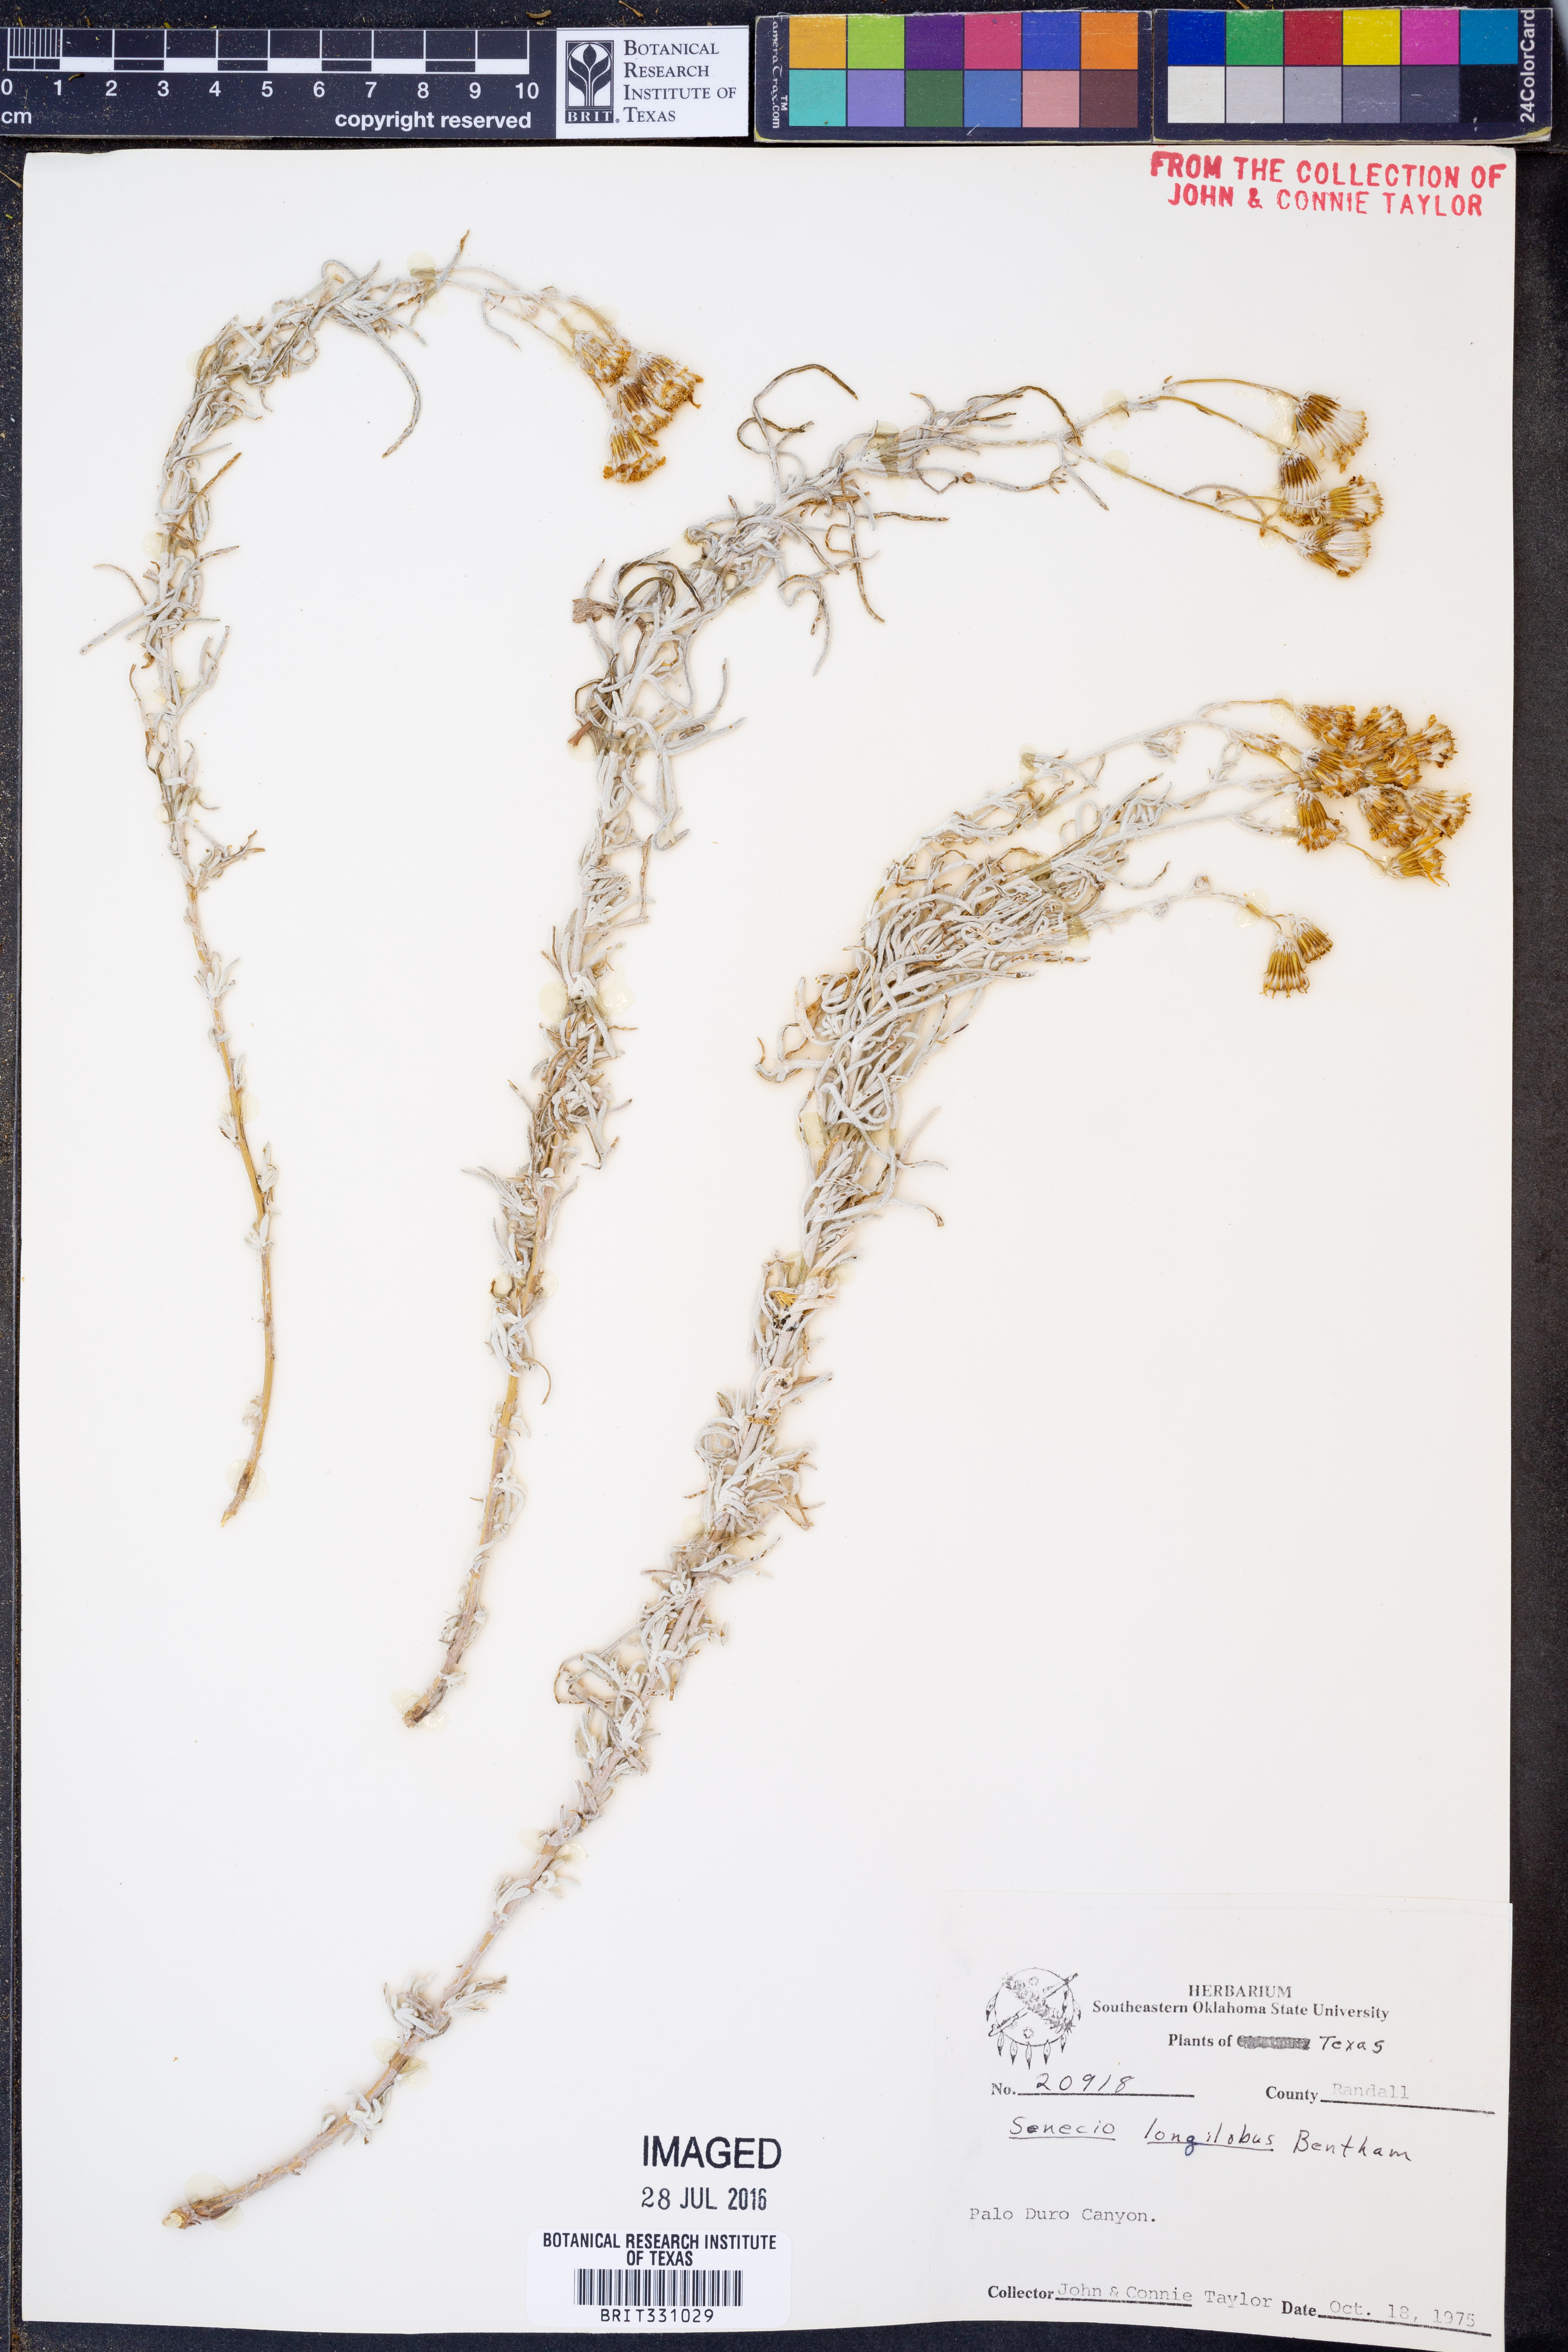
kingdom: Plantae
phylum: Tracheophyta
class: Magnoliopsida
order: Asterales
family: Asteraceae
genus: Senecio
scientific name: Senecio flaccidus
